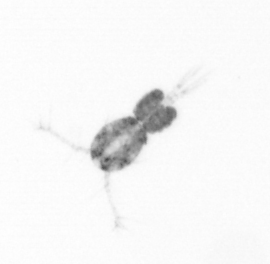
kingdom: Animalia
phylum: Arthropoda
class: Copepoda
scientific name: Copepoda
